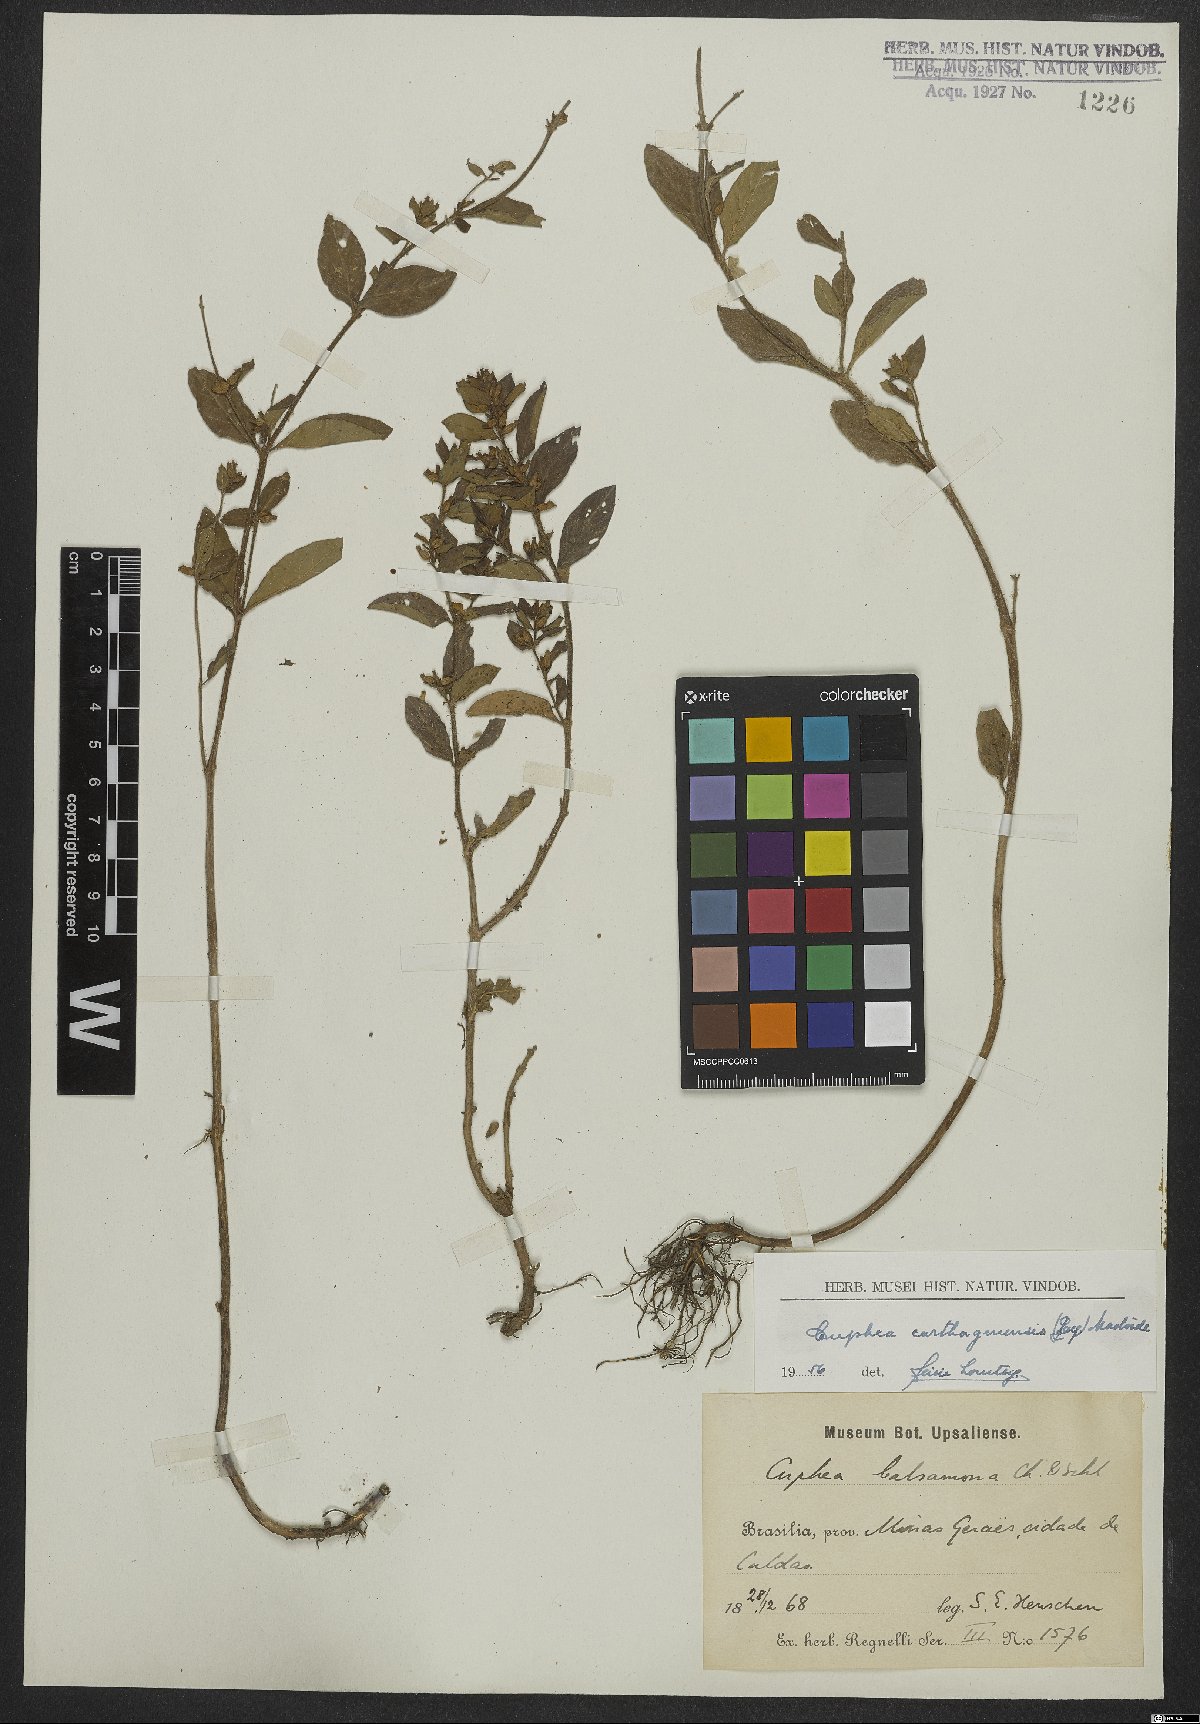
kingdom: Plantae
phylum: Tracheophyta
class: Magnoliopsida
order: Myrtales
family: Lythraceae
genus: Cuphea
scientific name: Cuphea carthagenensis
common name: Colombian waxweed
